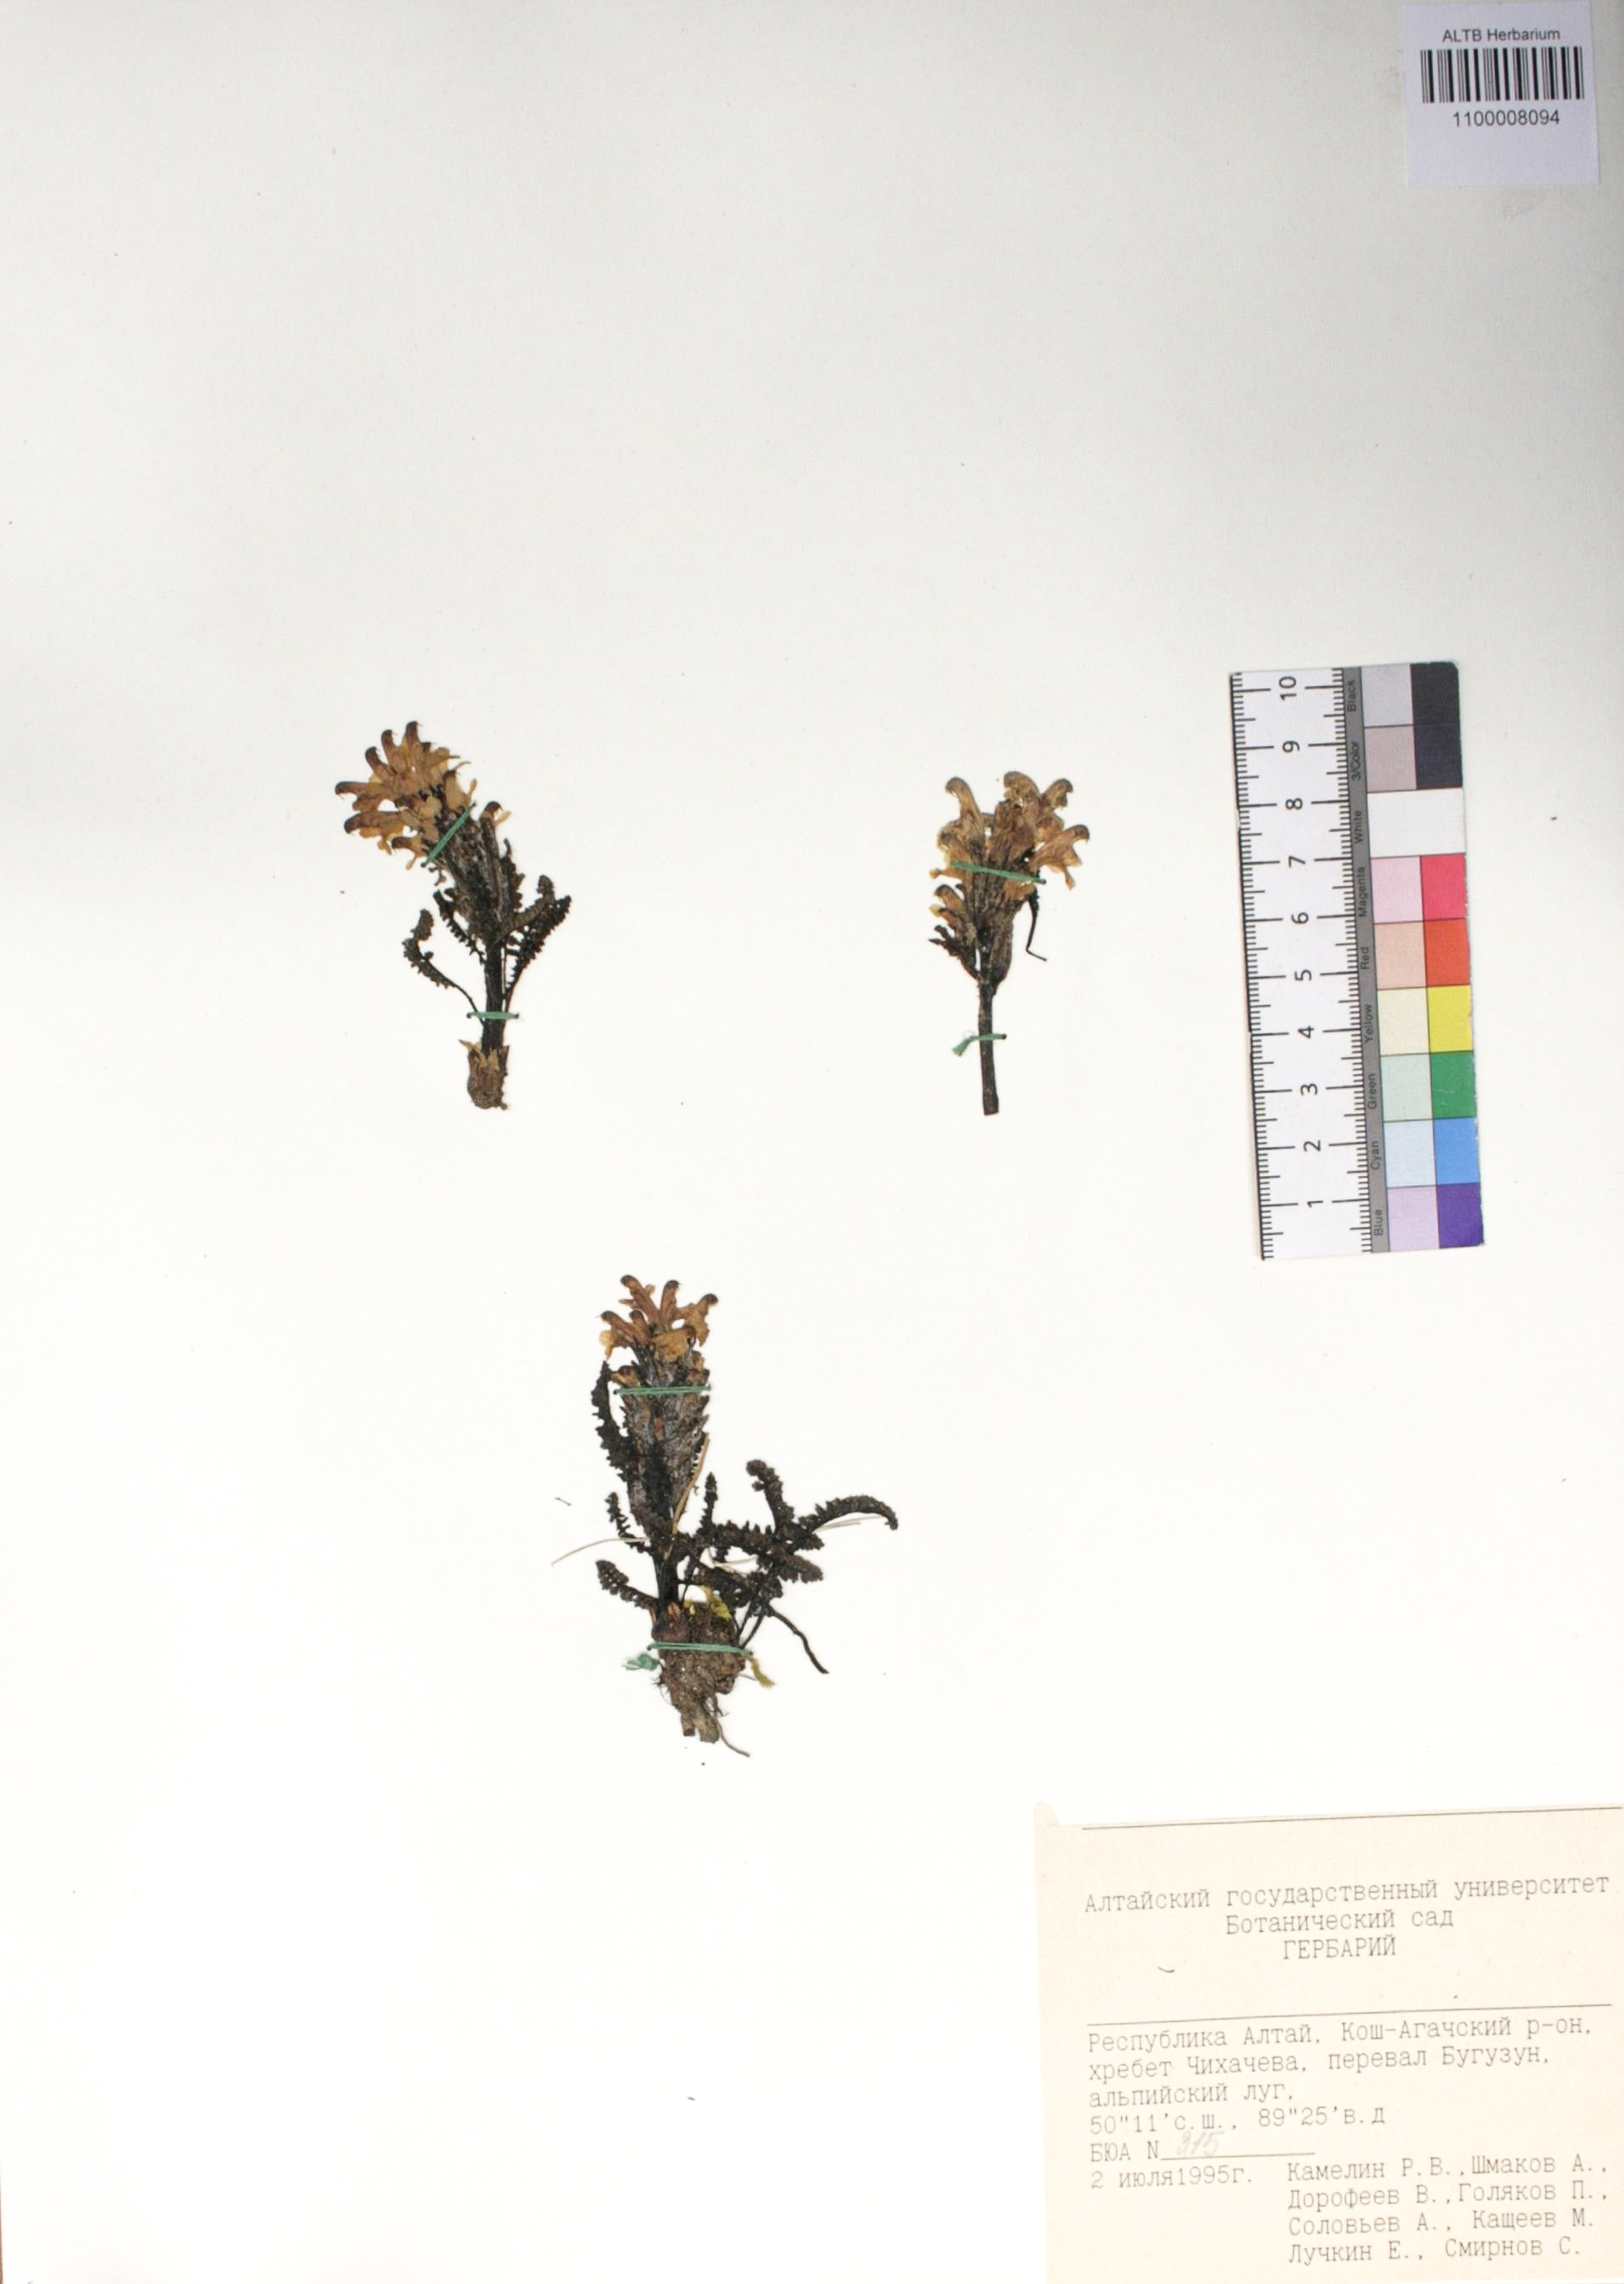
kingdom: Plantae
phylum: Tracheophyta
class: Magnoliopsida
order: Caryophyllales
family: Caryophyllaceae
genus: Silene
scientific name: Silene graminifolia
